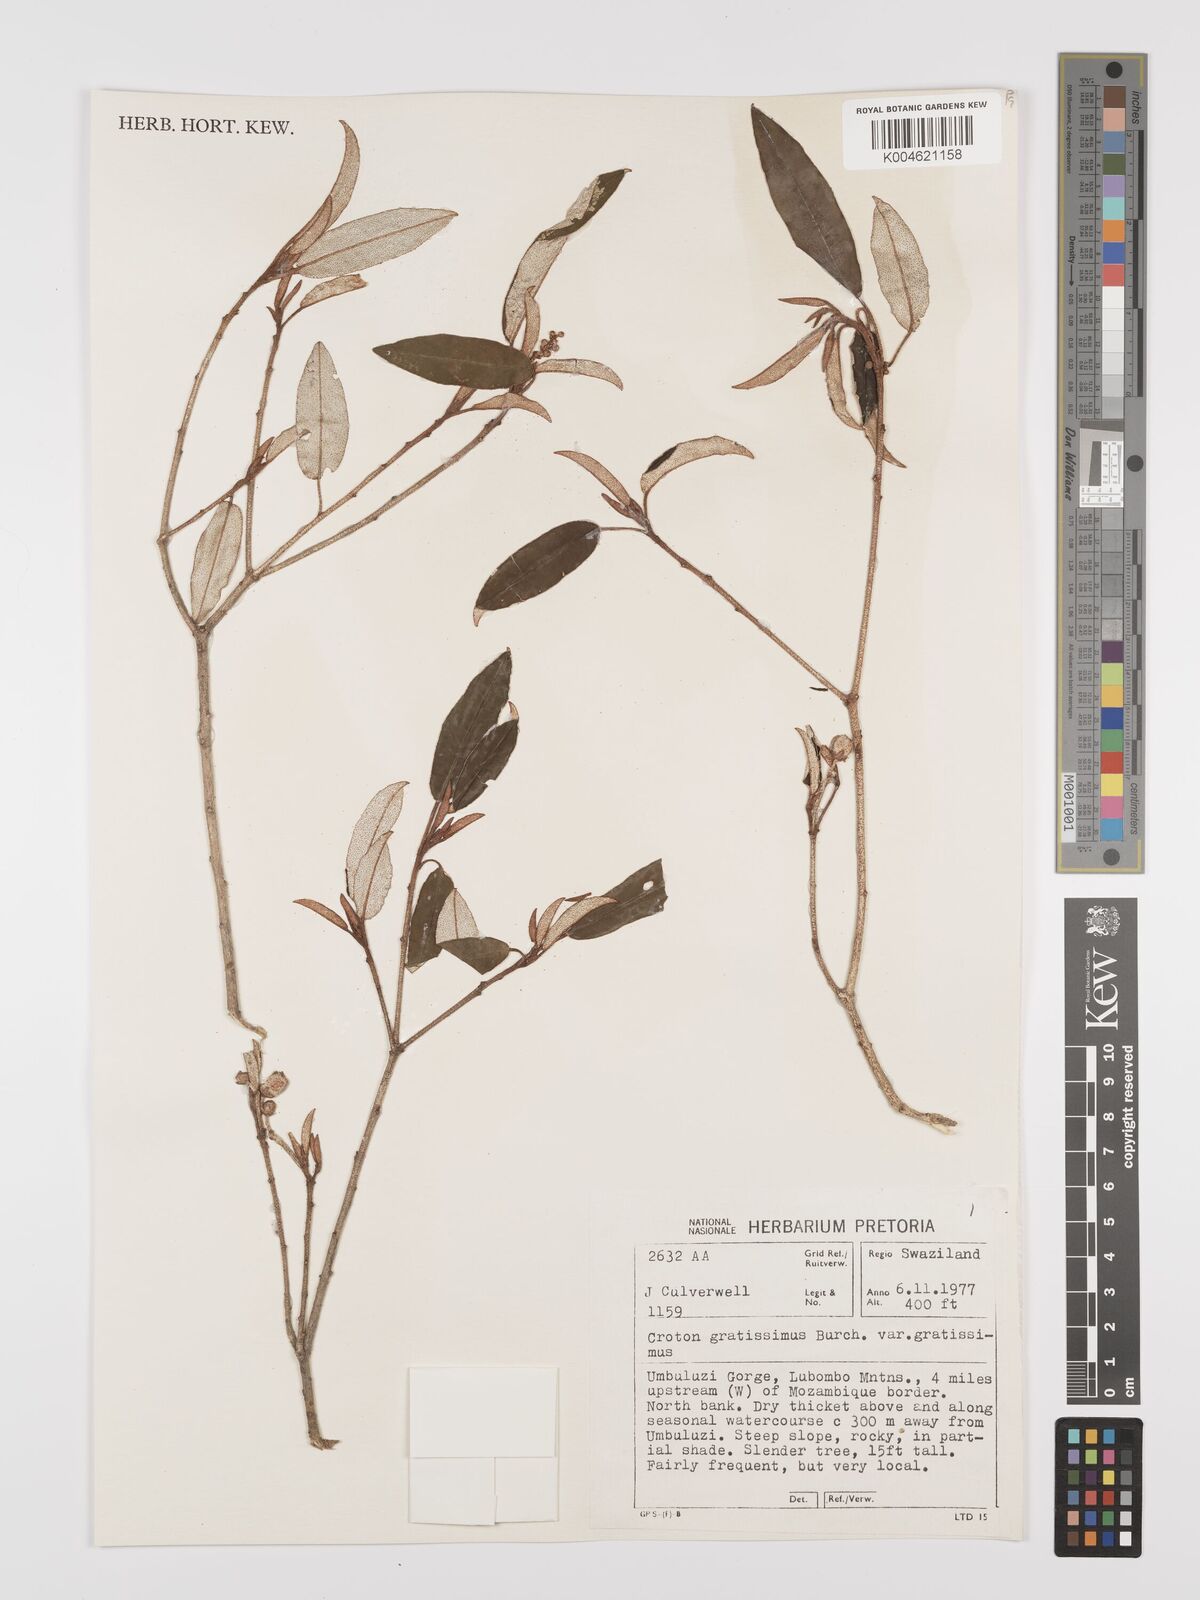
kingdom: Plantae
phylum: Tracheophyta
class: Magnoliopsida
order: Malpighiales
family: Euphorbiaceae
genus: Croton
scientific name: Croton gratissimus
